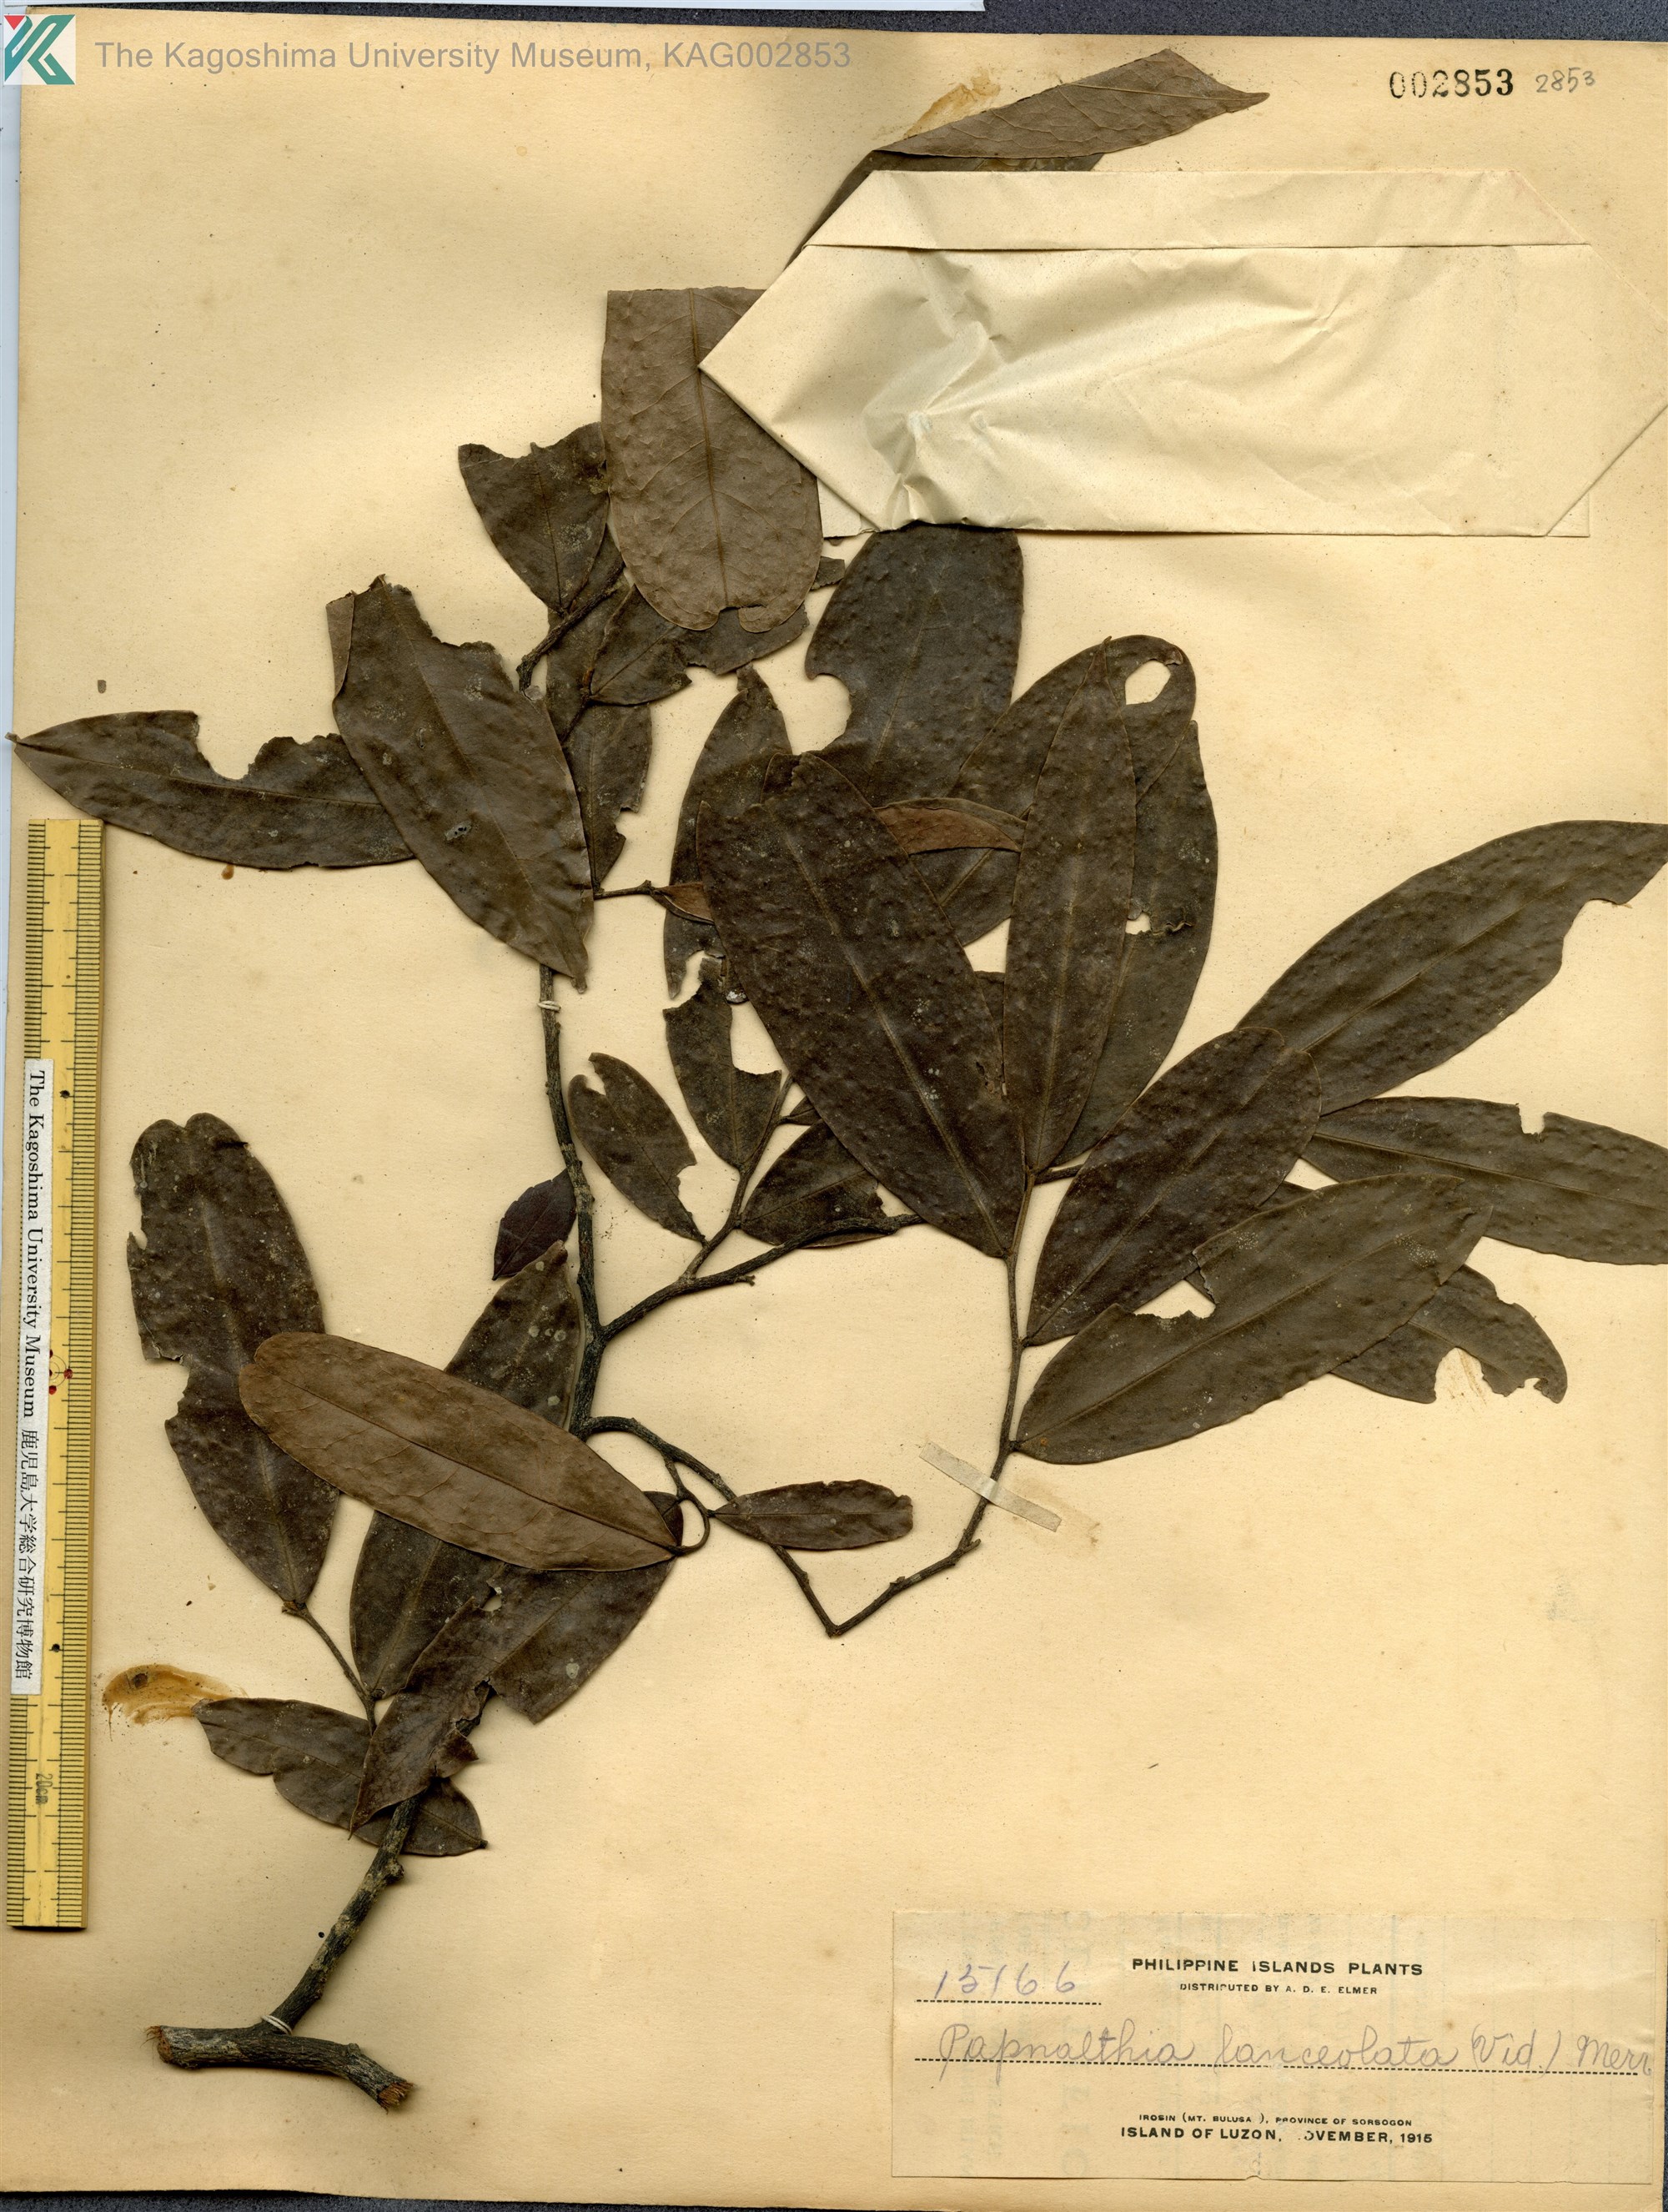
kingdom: Plantae
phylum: Tracheophyta
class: Magnoliopsida
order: Magnoliales
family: Annonaceae
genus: Haplostichanthus
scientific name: Haplostichanthus lanceolata
